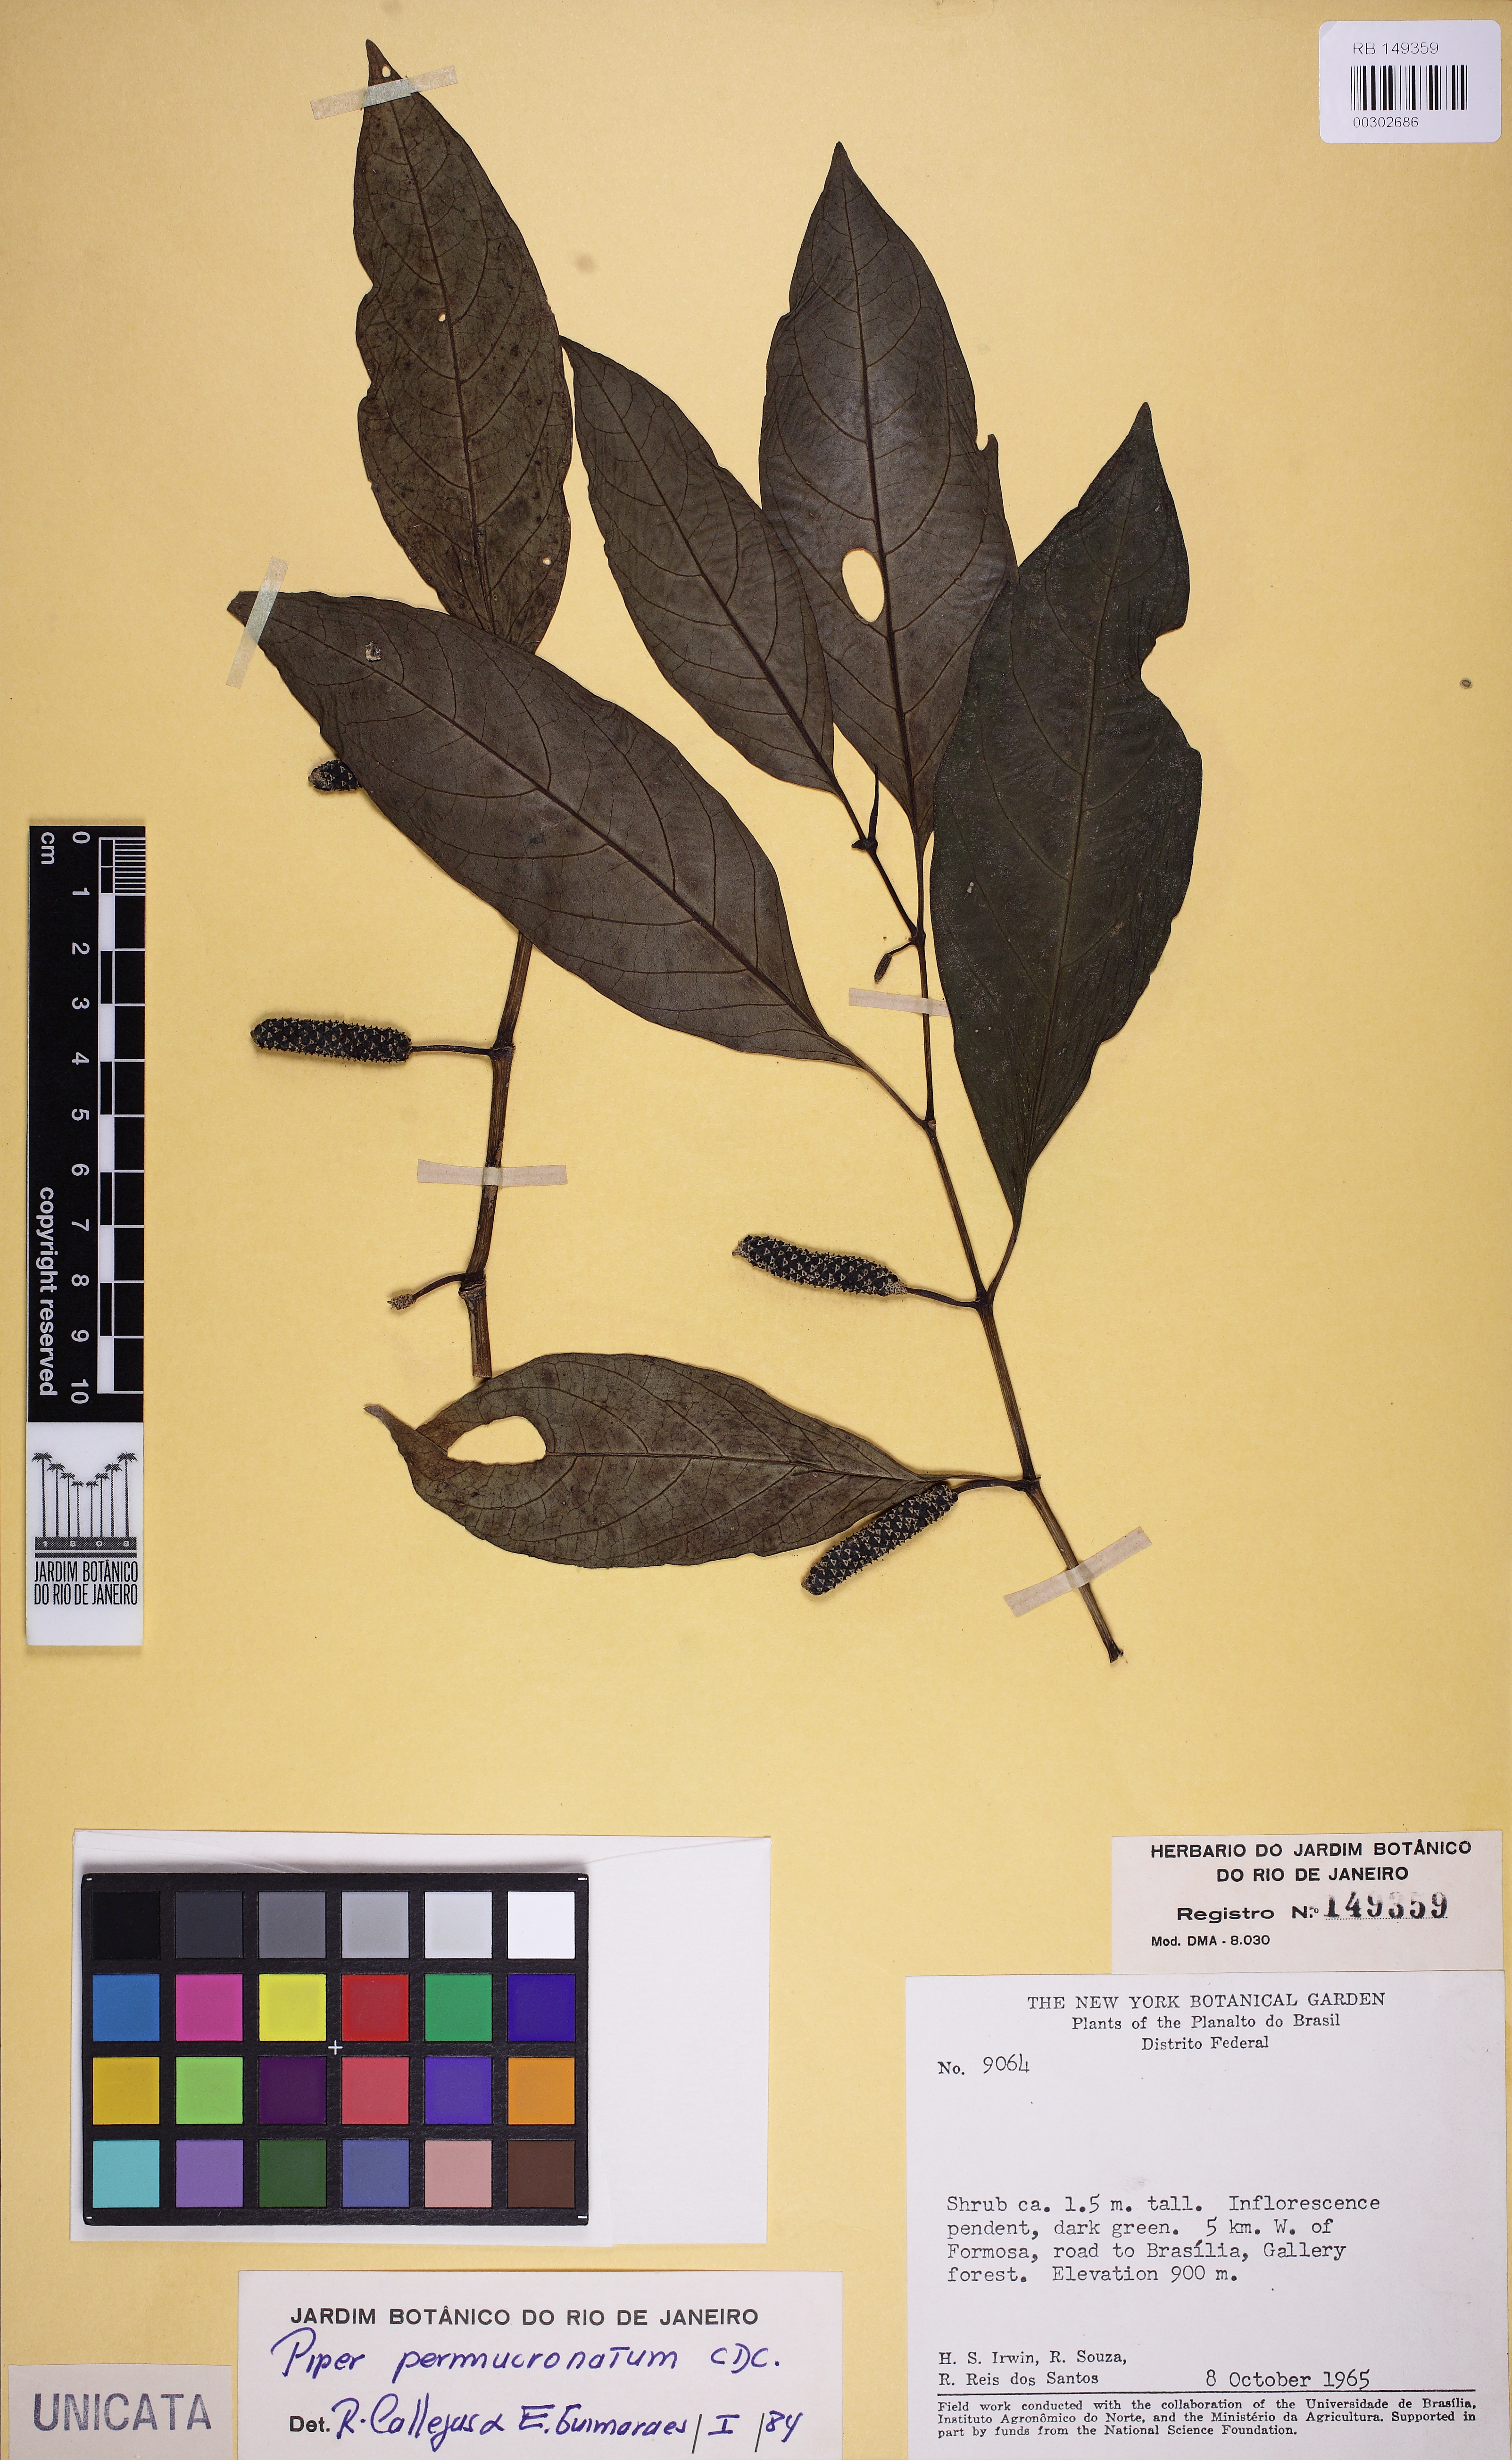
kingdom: Plantae
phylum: Tracheophyta
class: Magnoliopsida
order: Piperales
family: Piperaceae
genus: Piper
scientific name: Piper permucronatum
